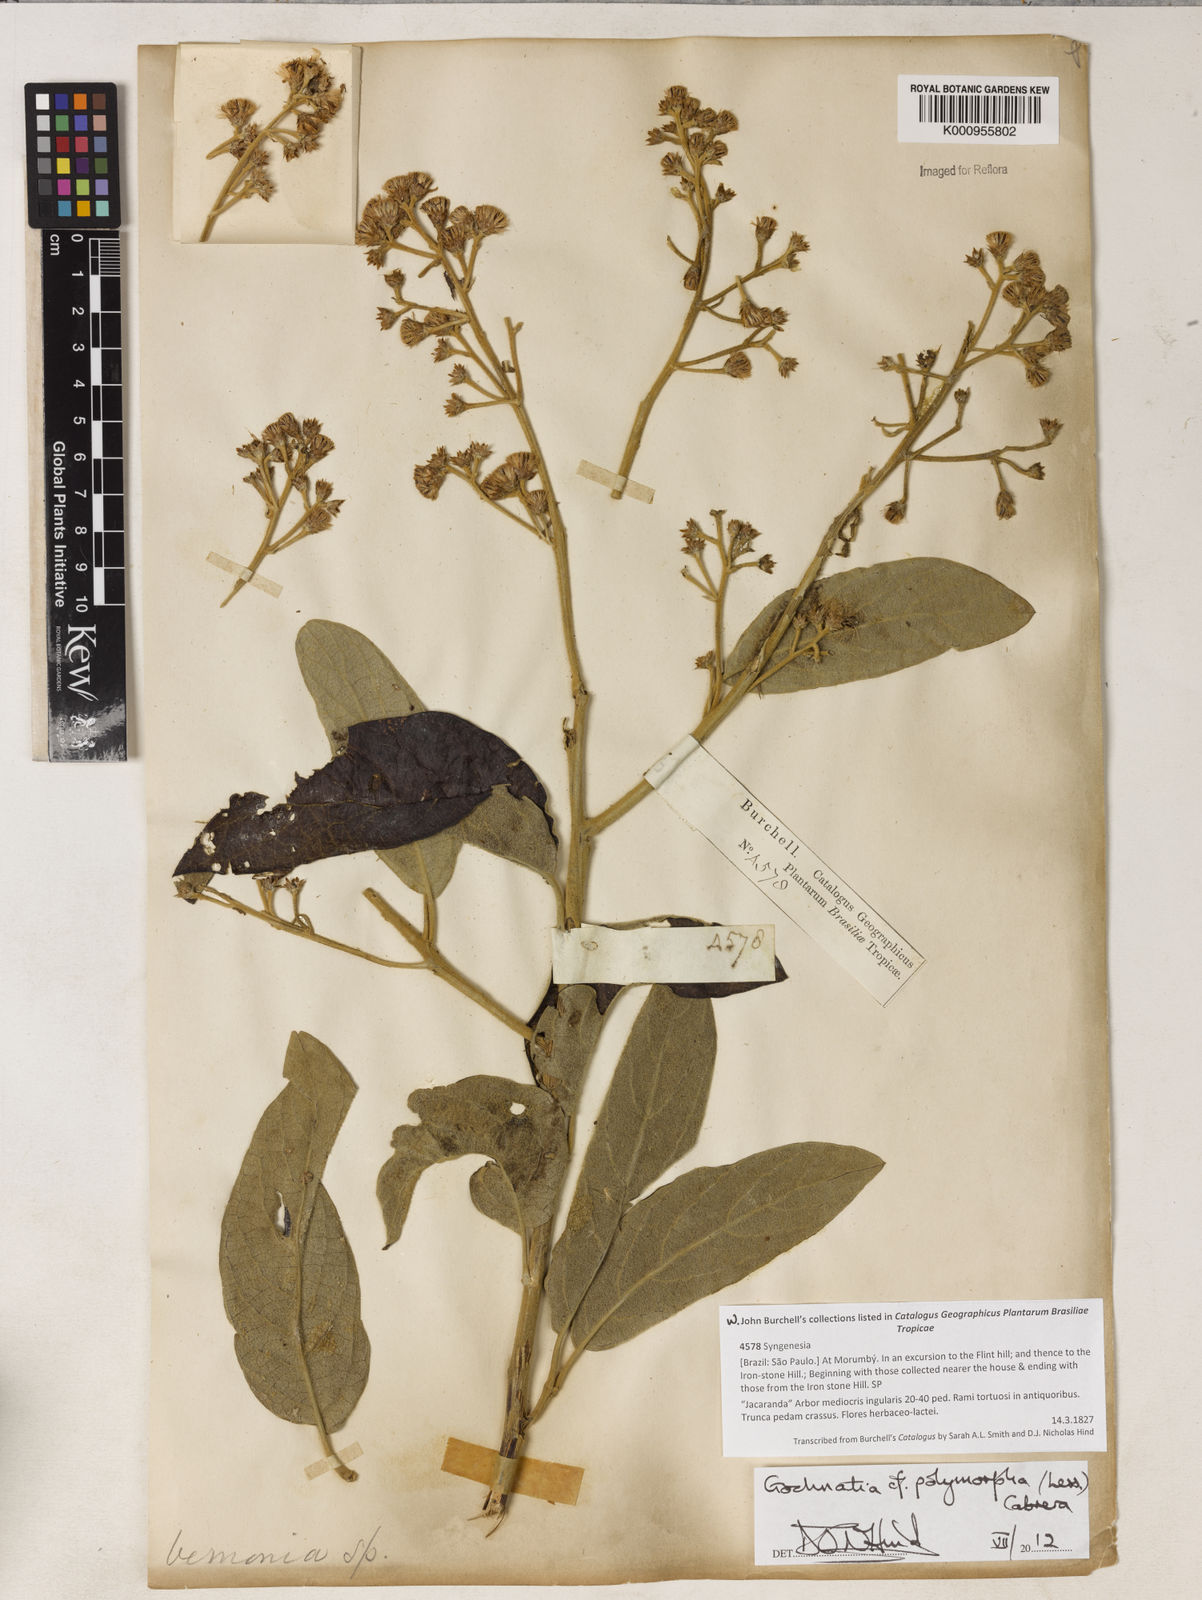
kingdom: Plantae
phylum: Tracheophyta
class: Magnoliopsida
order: Asterales
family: Asteraceae
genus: Moquiniastrum
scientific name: Moquiniastrum polymorphum
